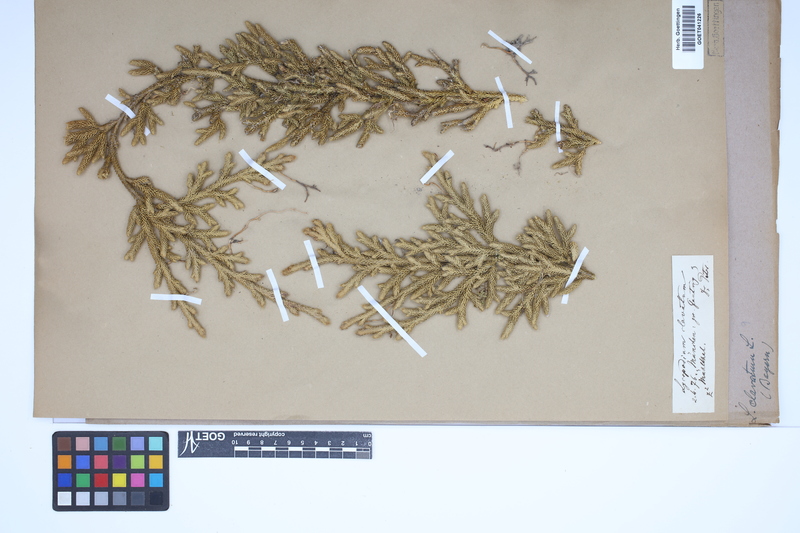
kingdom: Plantae
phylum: Tracheophyta
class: Lycopodiopsida
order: Lycopodiales
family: Lycopodiaceae
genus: Lycopodium
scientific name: Lycopodium clavatum
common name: Stag's-horn clubmoss
